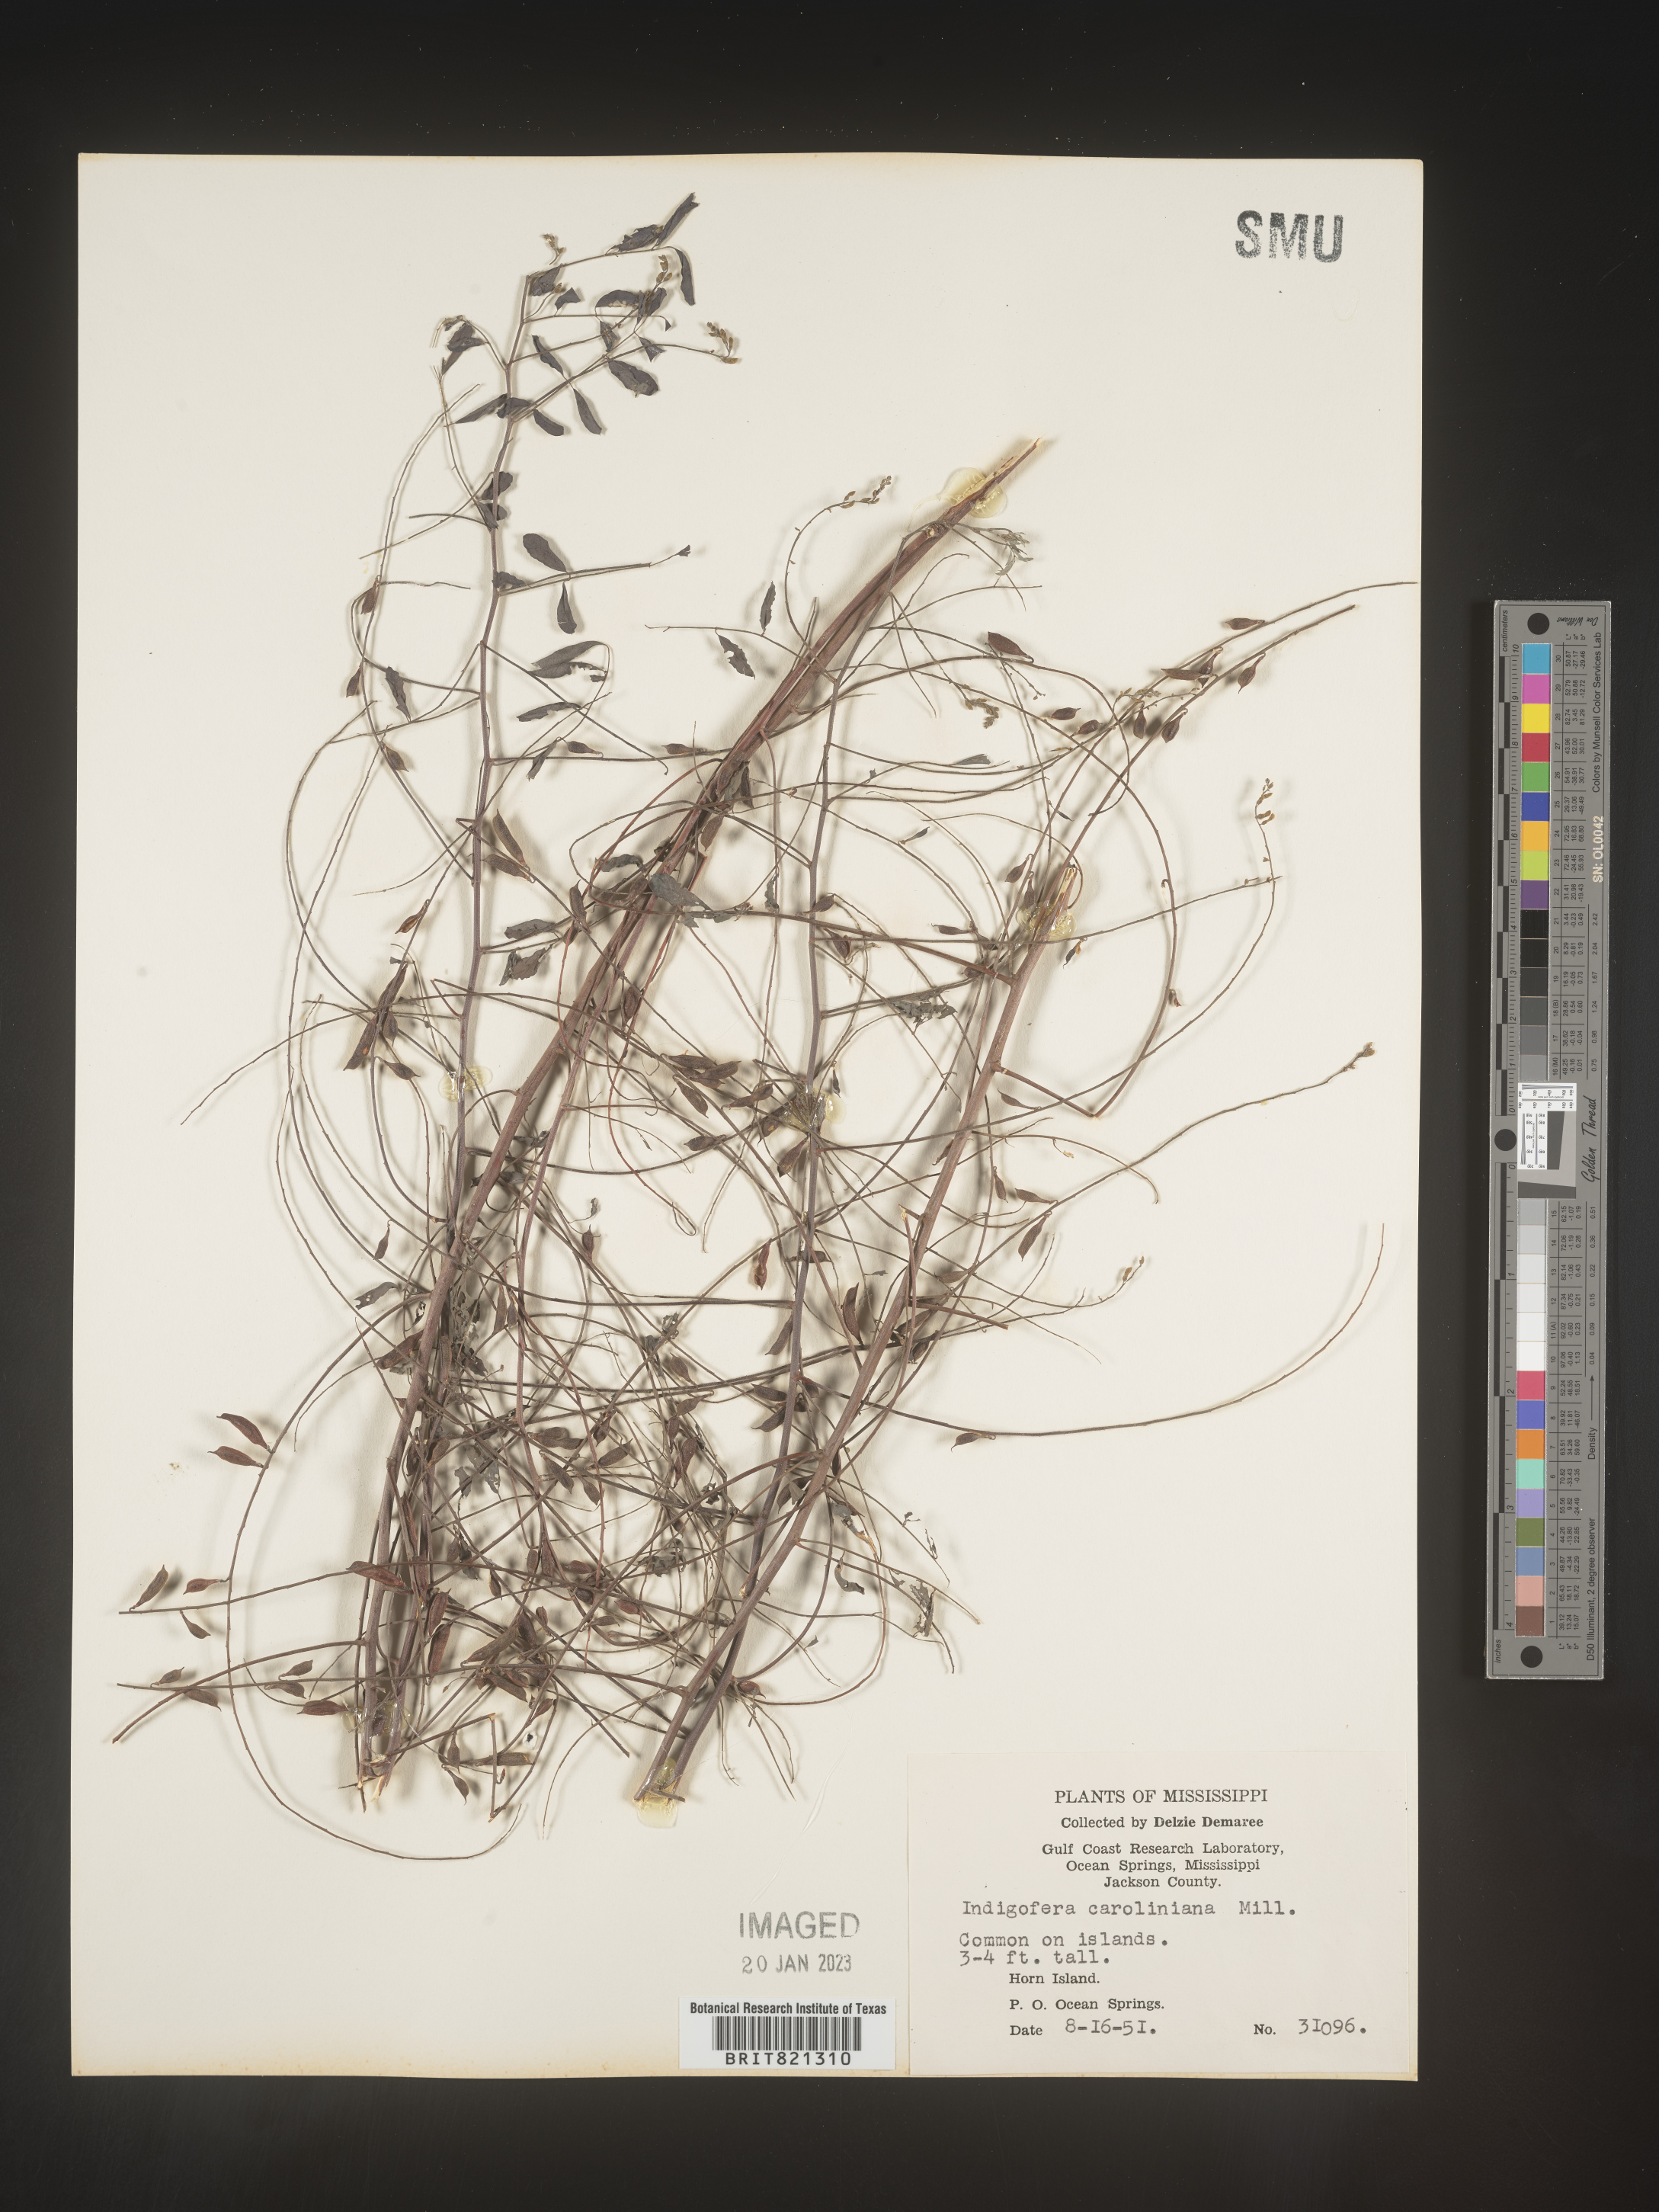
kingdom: Plantae
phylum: Tracheophyta
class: Magnoliopsida
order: Fabales
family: Fabaceae
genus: Indigofera
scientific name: Indigofera
